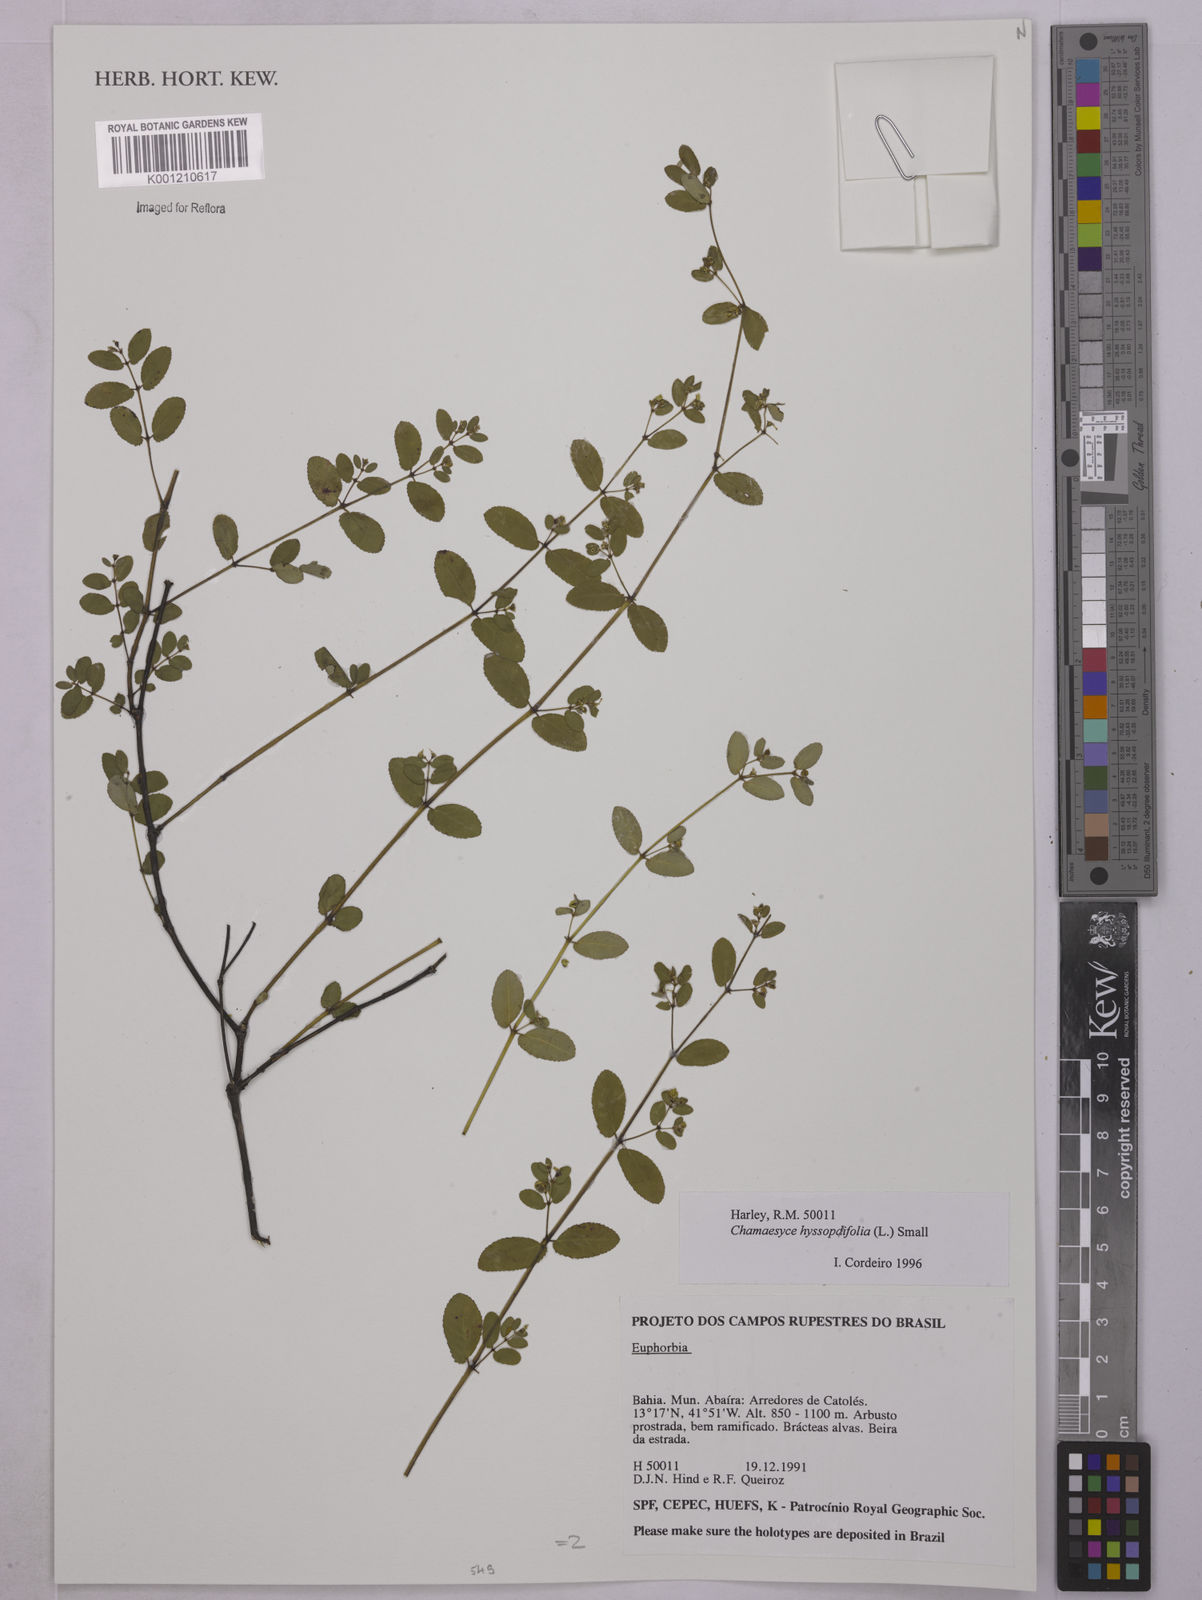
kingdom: Plantae
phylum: Tracheophyta
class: Magnoliopsida
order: Malpighiales
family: Euphorbiaceae
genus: Euphorbia
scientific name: Euphorbia hyssopifolia
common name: Hyssopleaf sandmat
